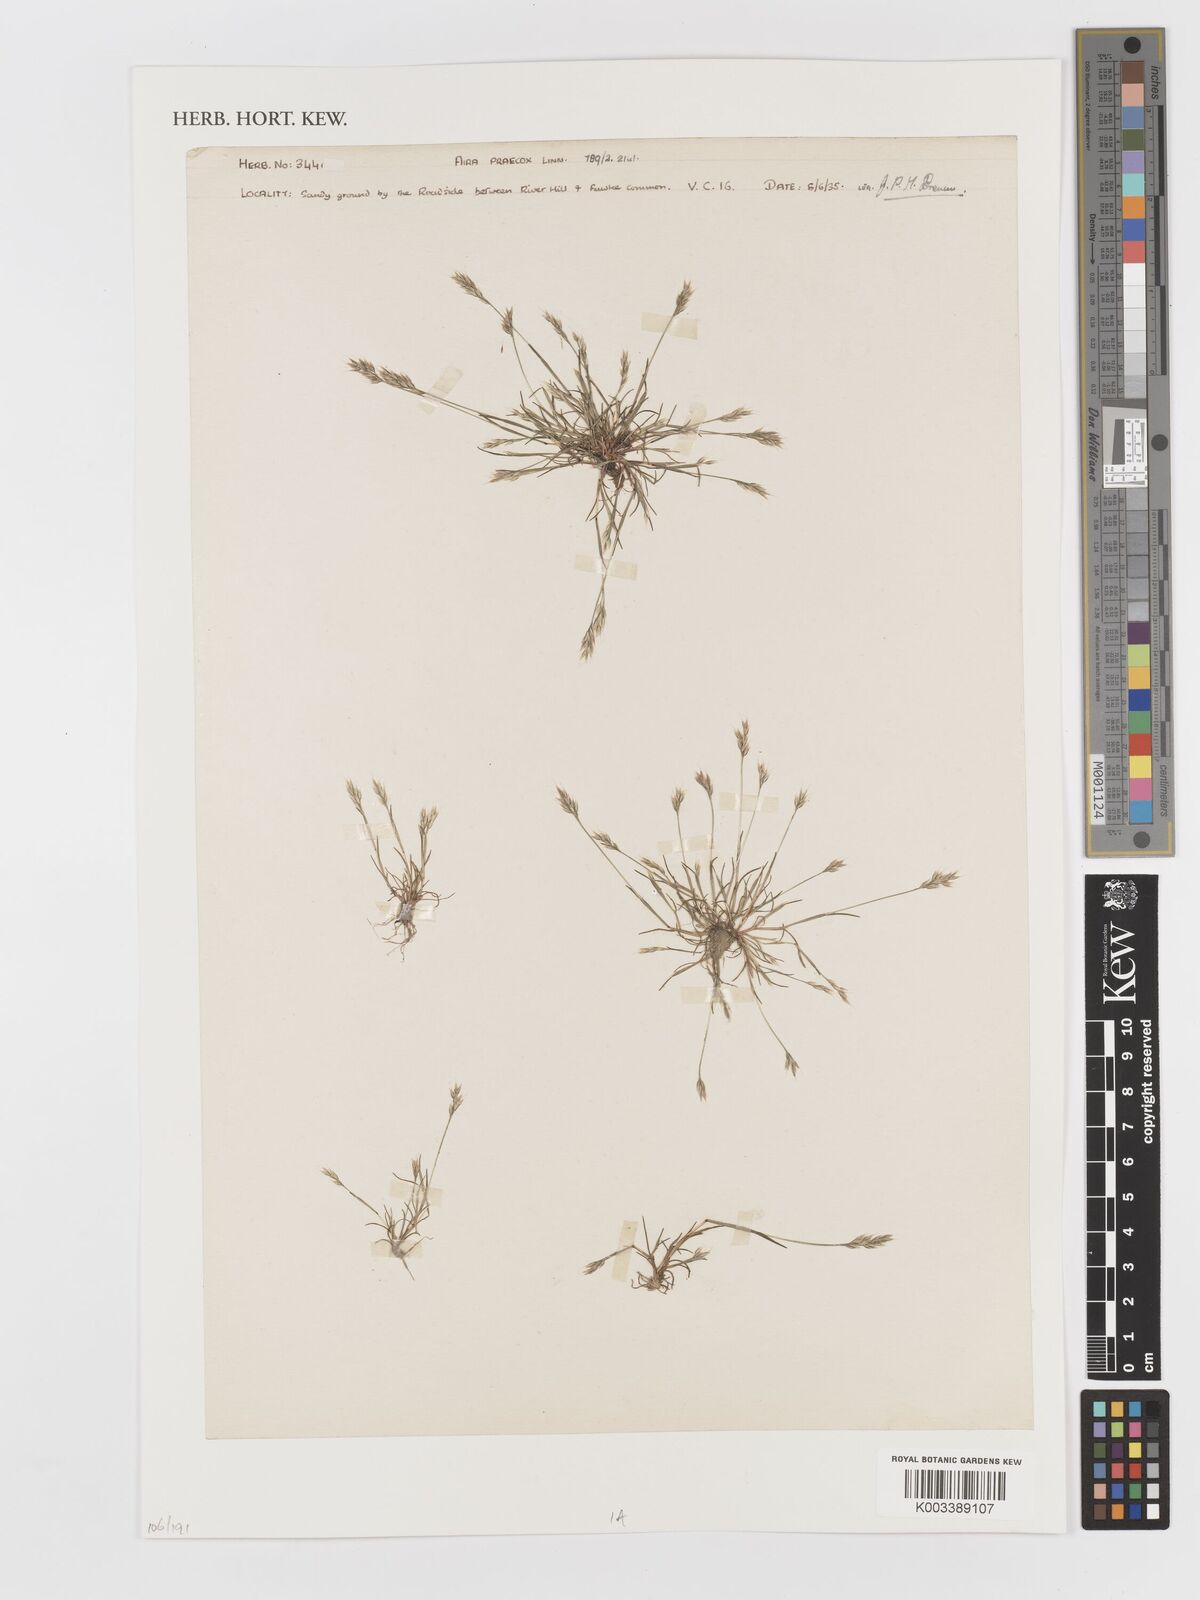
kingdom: Plantae
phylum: Tracheophyta
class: Liliopsida
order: Poales
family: Poaceae
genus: Aira
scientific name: Aira praecox
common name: Early hair-grass
